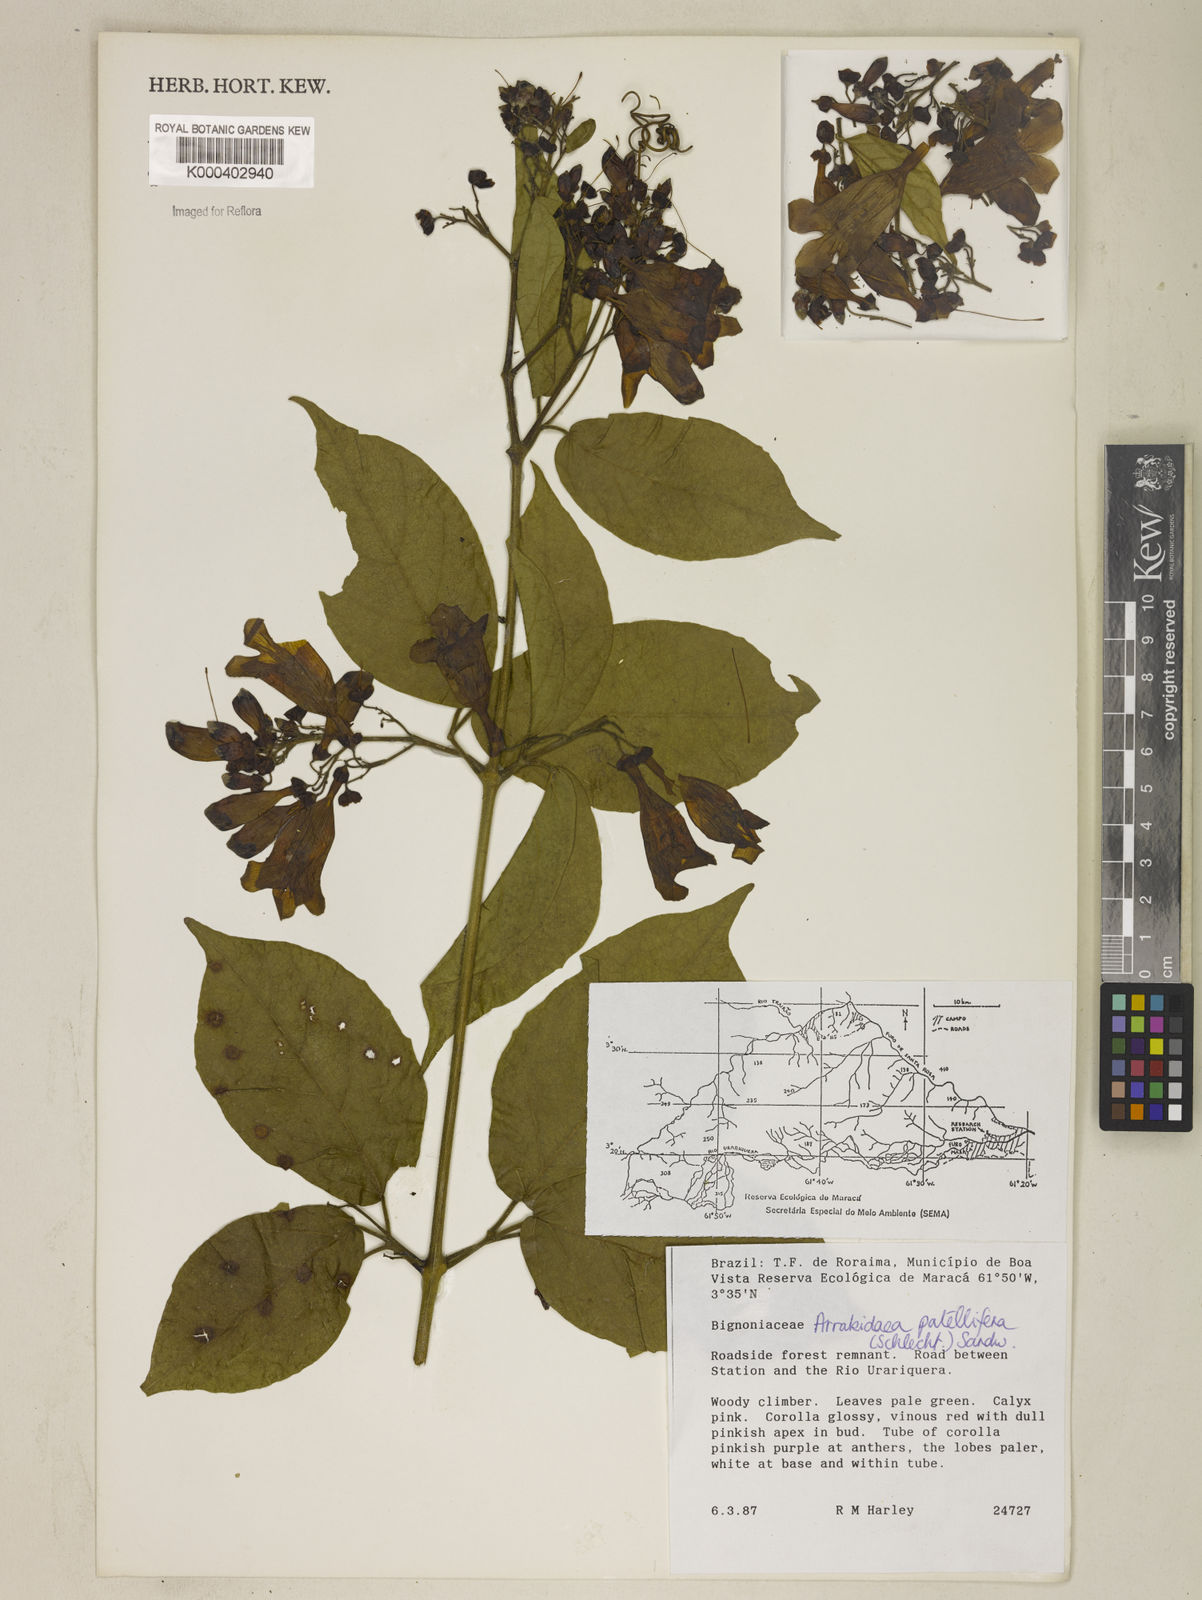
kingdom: Plantae
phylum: Tracheophyta
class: Magnoliopsida
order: Lamiales
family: Bignoniaceae
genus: Fridericia
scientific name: Fridericia patellifera
